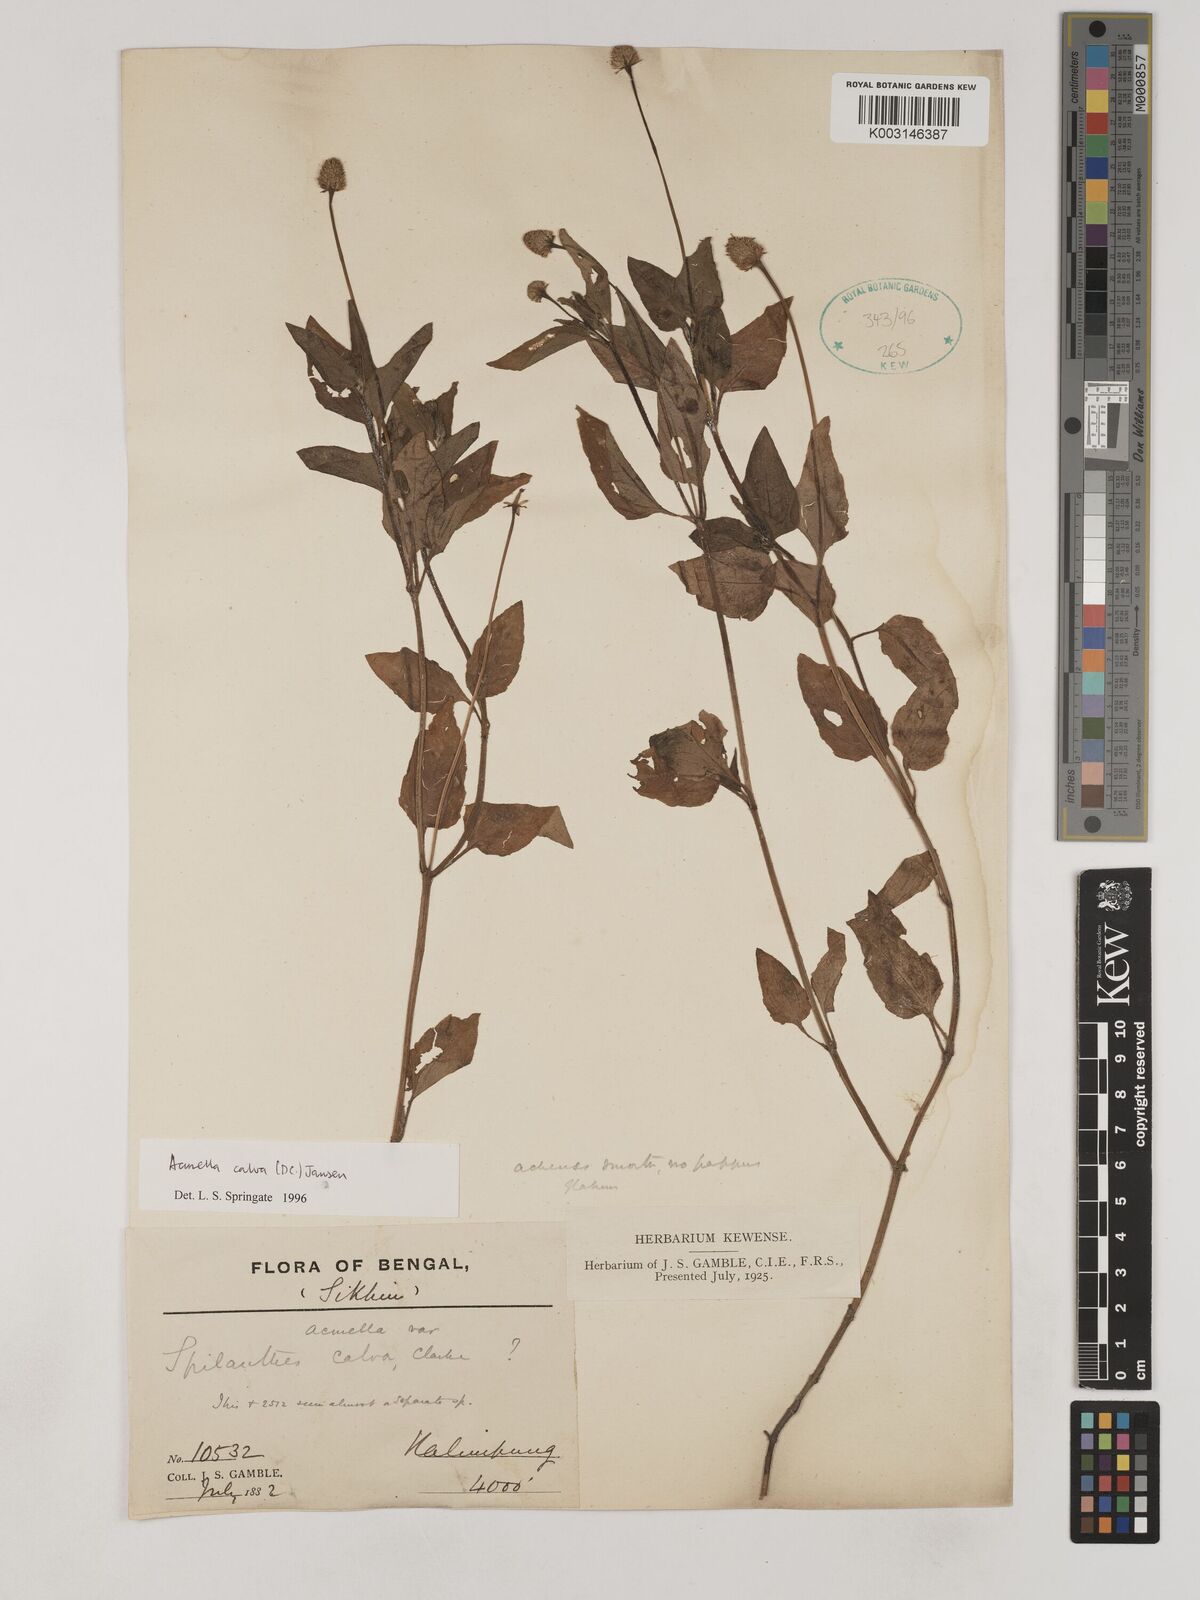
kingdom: Plantae
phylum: Tracheophyta
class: Magnoliopsida
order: Asterales
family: Asteraceae
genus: Acmella
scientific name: Acmella calva
